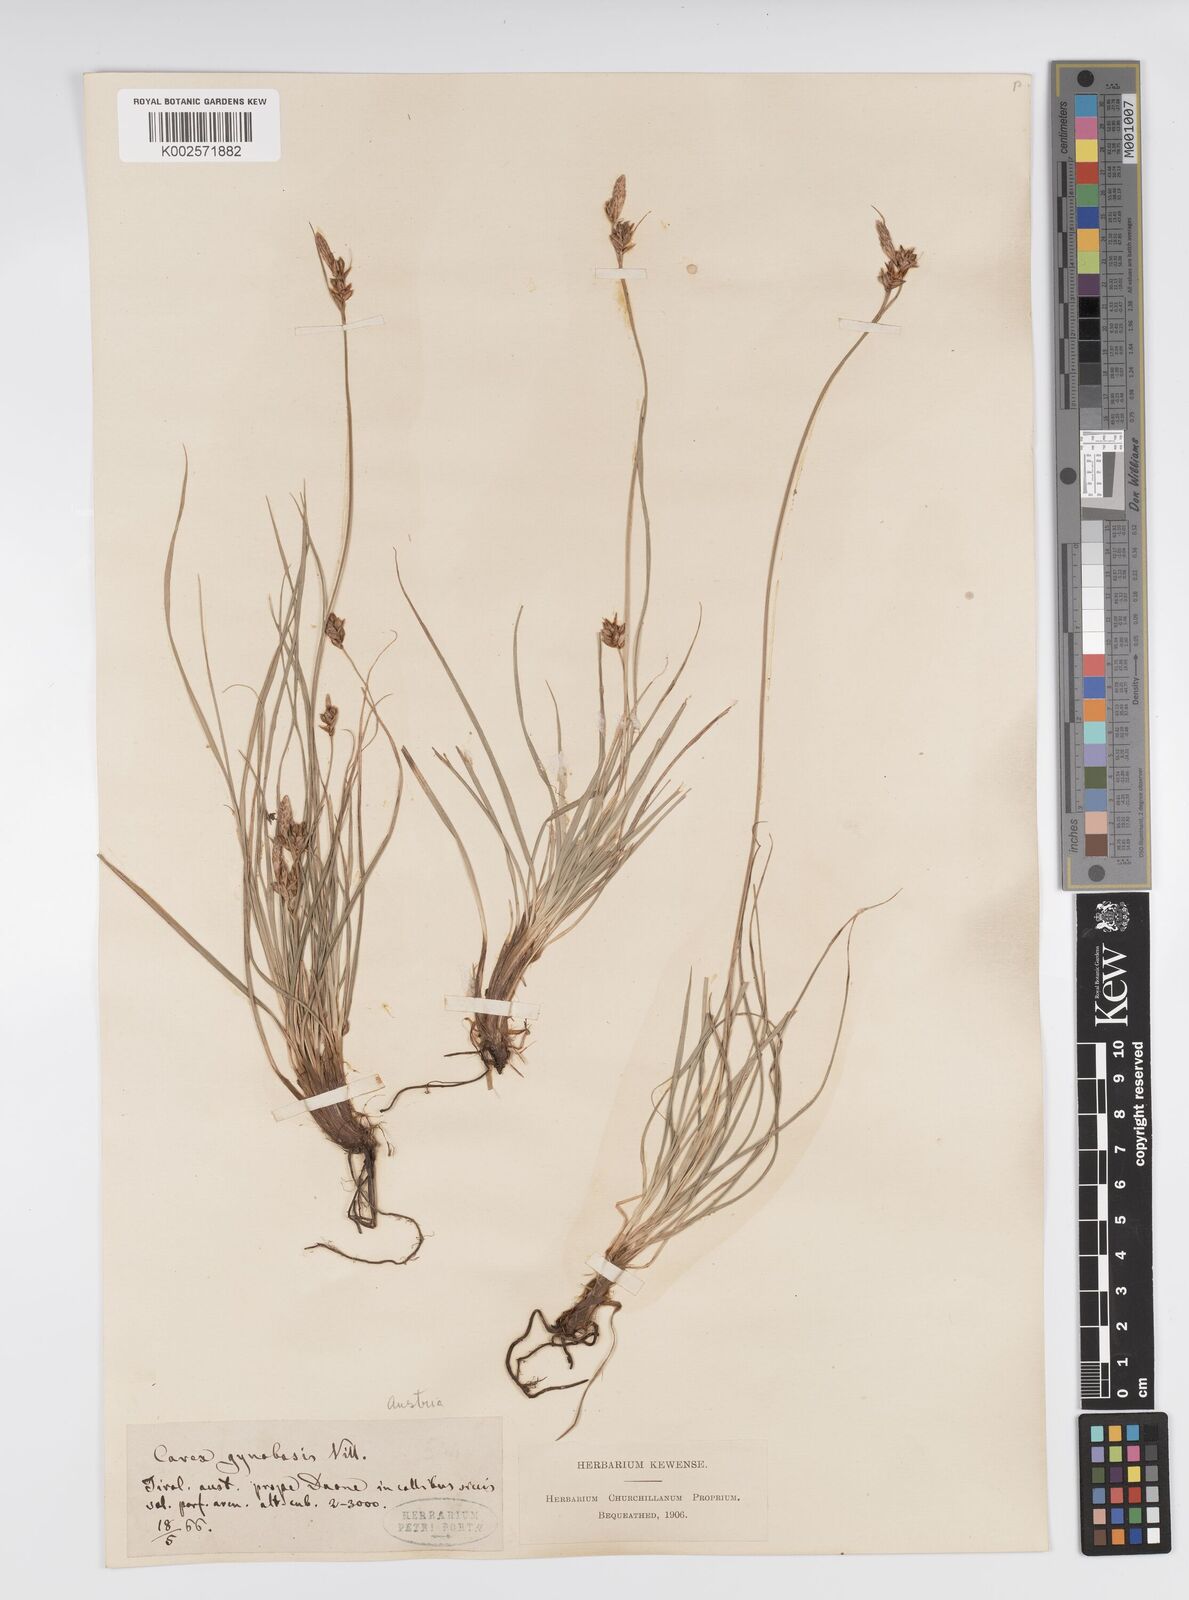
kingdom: Plantae
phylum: Tracheophyta
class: Liliopsida
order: Poales
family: Cyperaceae
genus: Carex
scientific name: Carex halleriana
